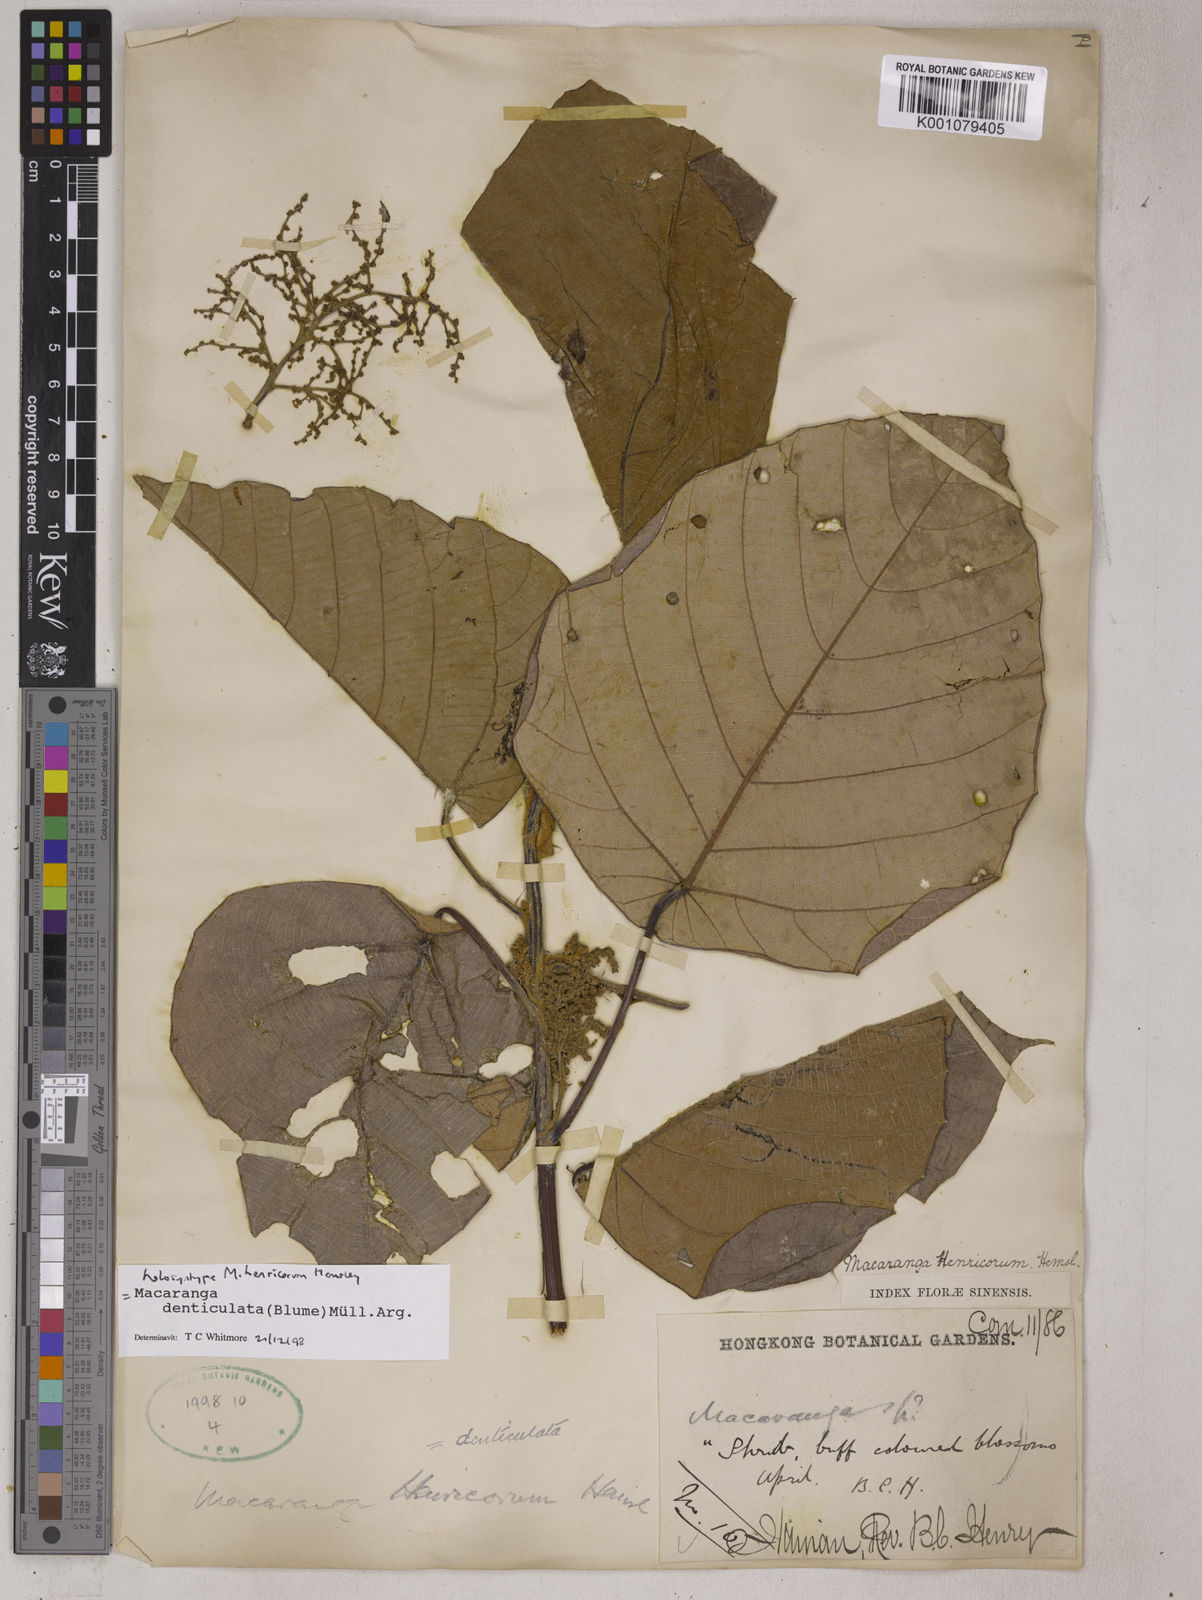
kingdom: Plantae
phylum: Tracheophyta
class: Magnoliopsida
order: Malpighiales
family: Euphorbiaceae
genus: Macaranga
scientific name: Macaranga
